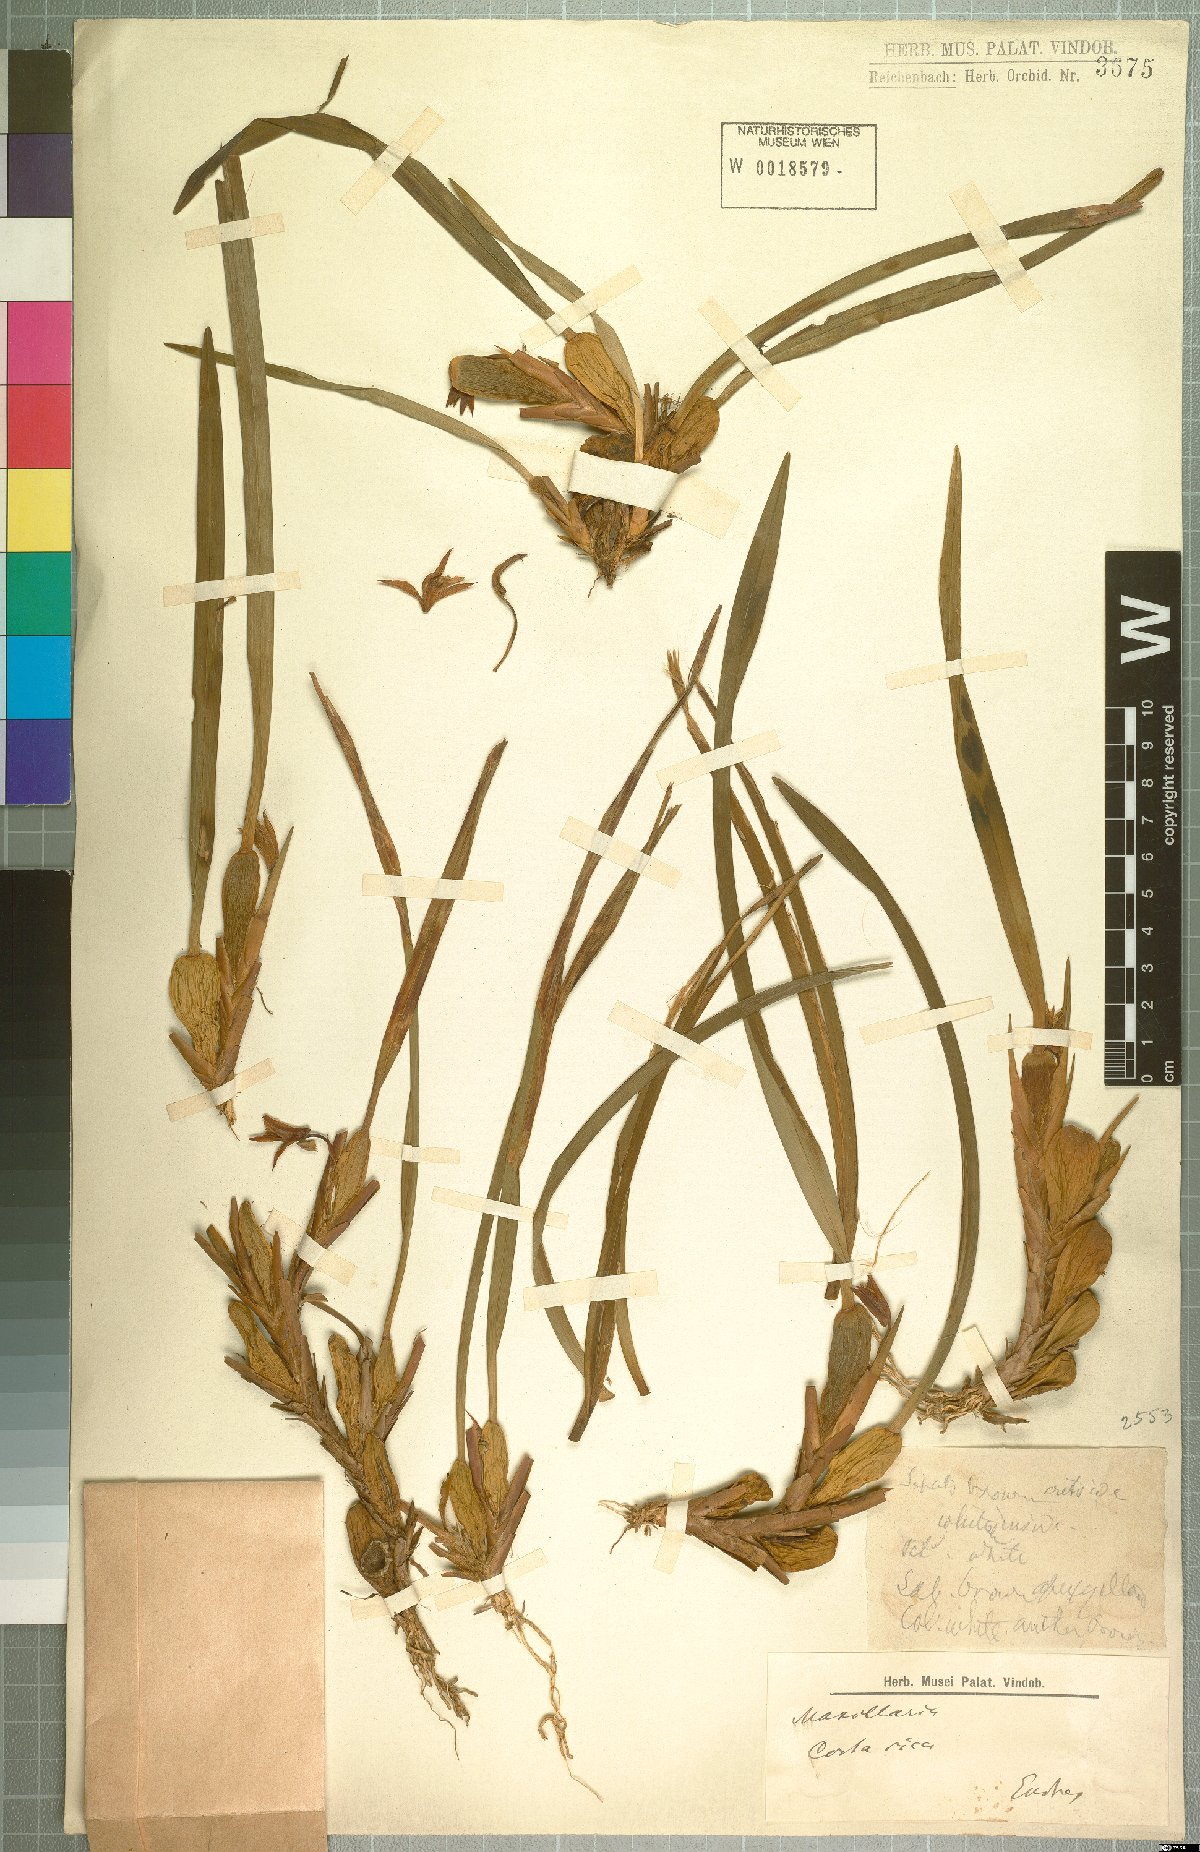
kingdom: Plantae
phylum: Tracheophyta
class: Liliopsida
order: Asparagales
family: Orchidaceae
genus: Maxillaria
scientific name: Maxillaria
